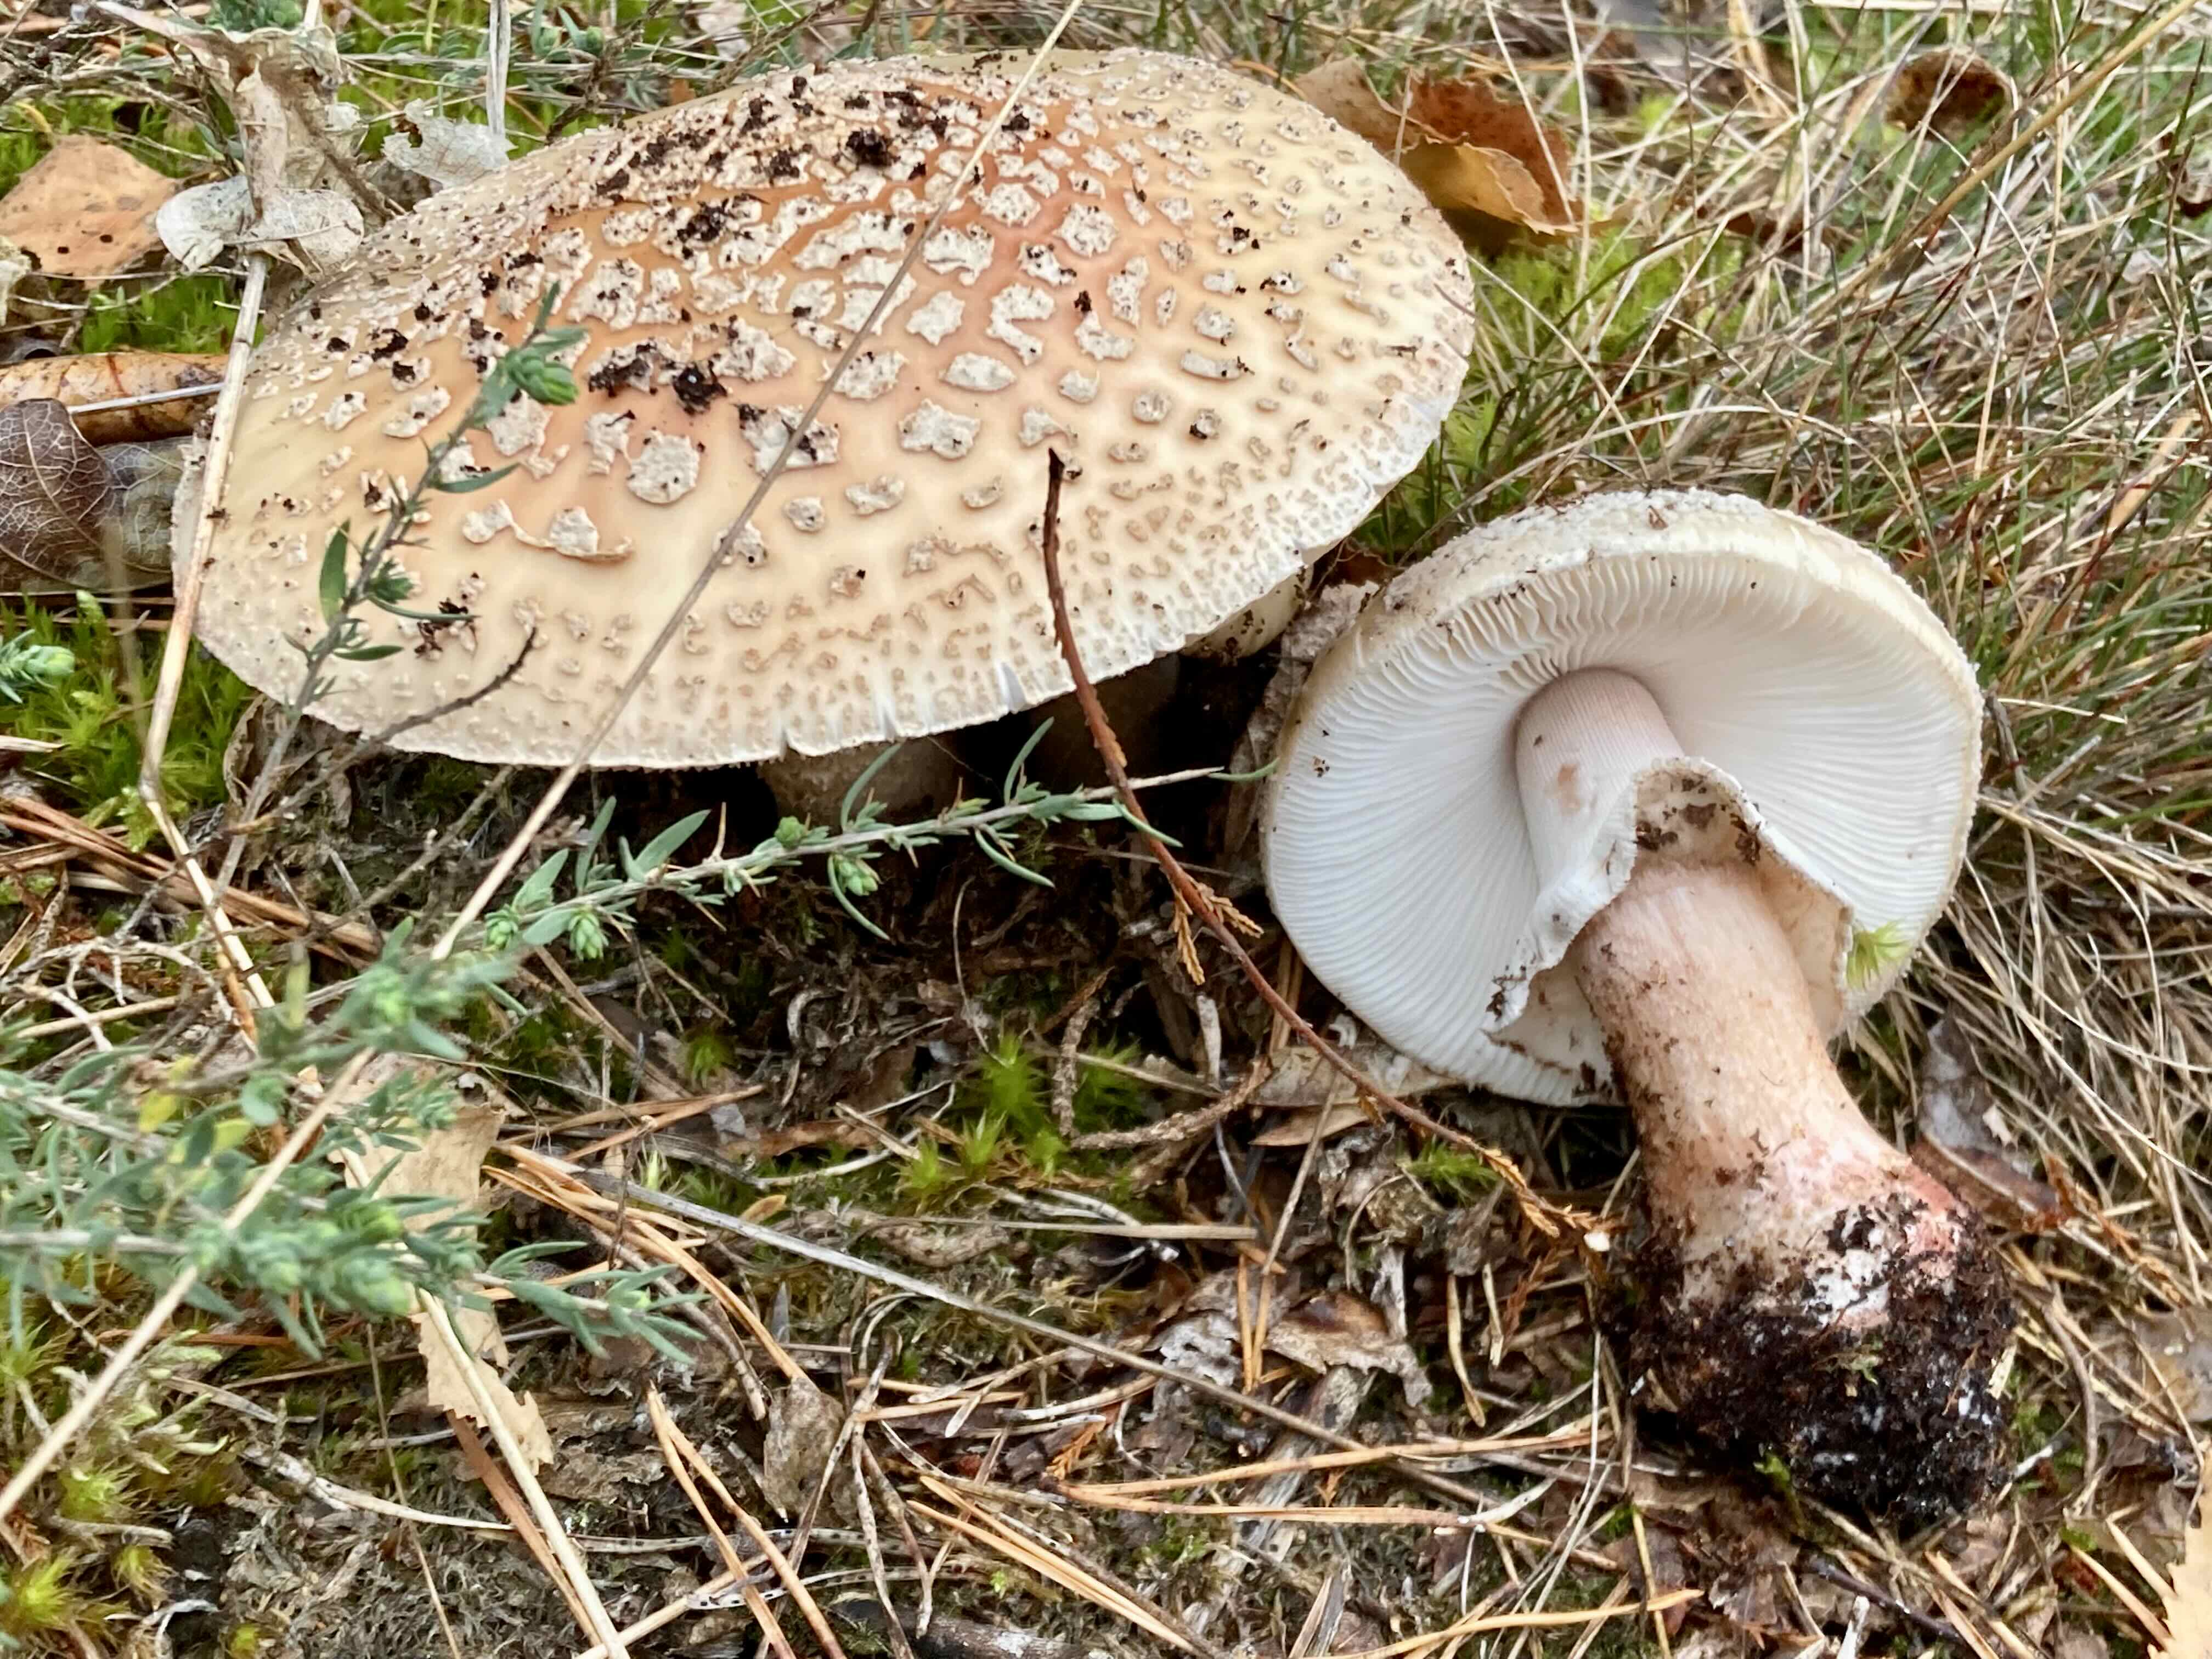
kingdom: Fungi
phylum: Basidiomycota
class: Agaricomycetes
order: Agaricales
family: Amanitaceae
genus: Amanita
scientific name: Amanita rubescens
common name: rødmende fluesvamp
